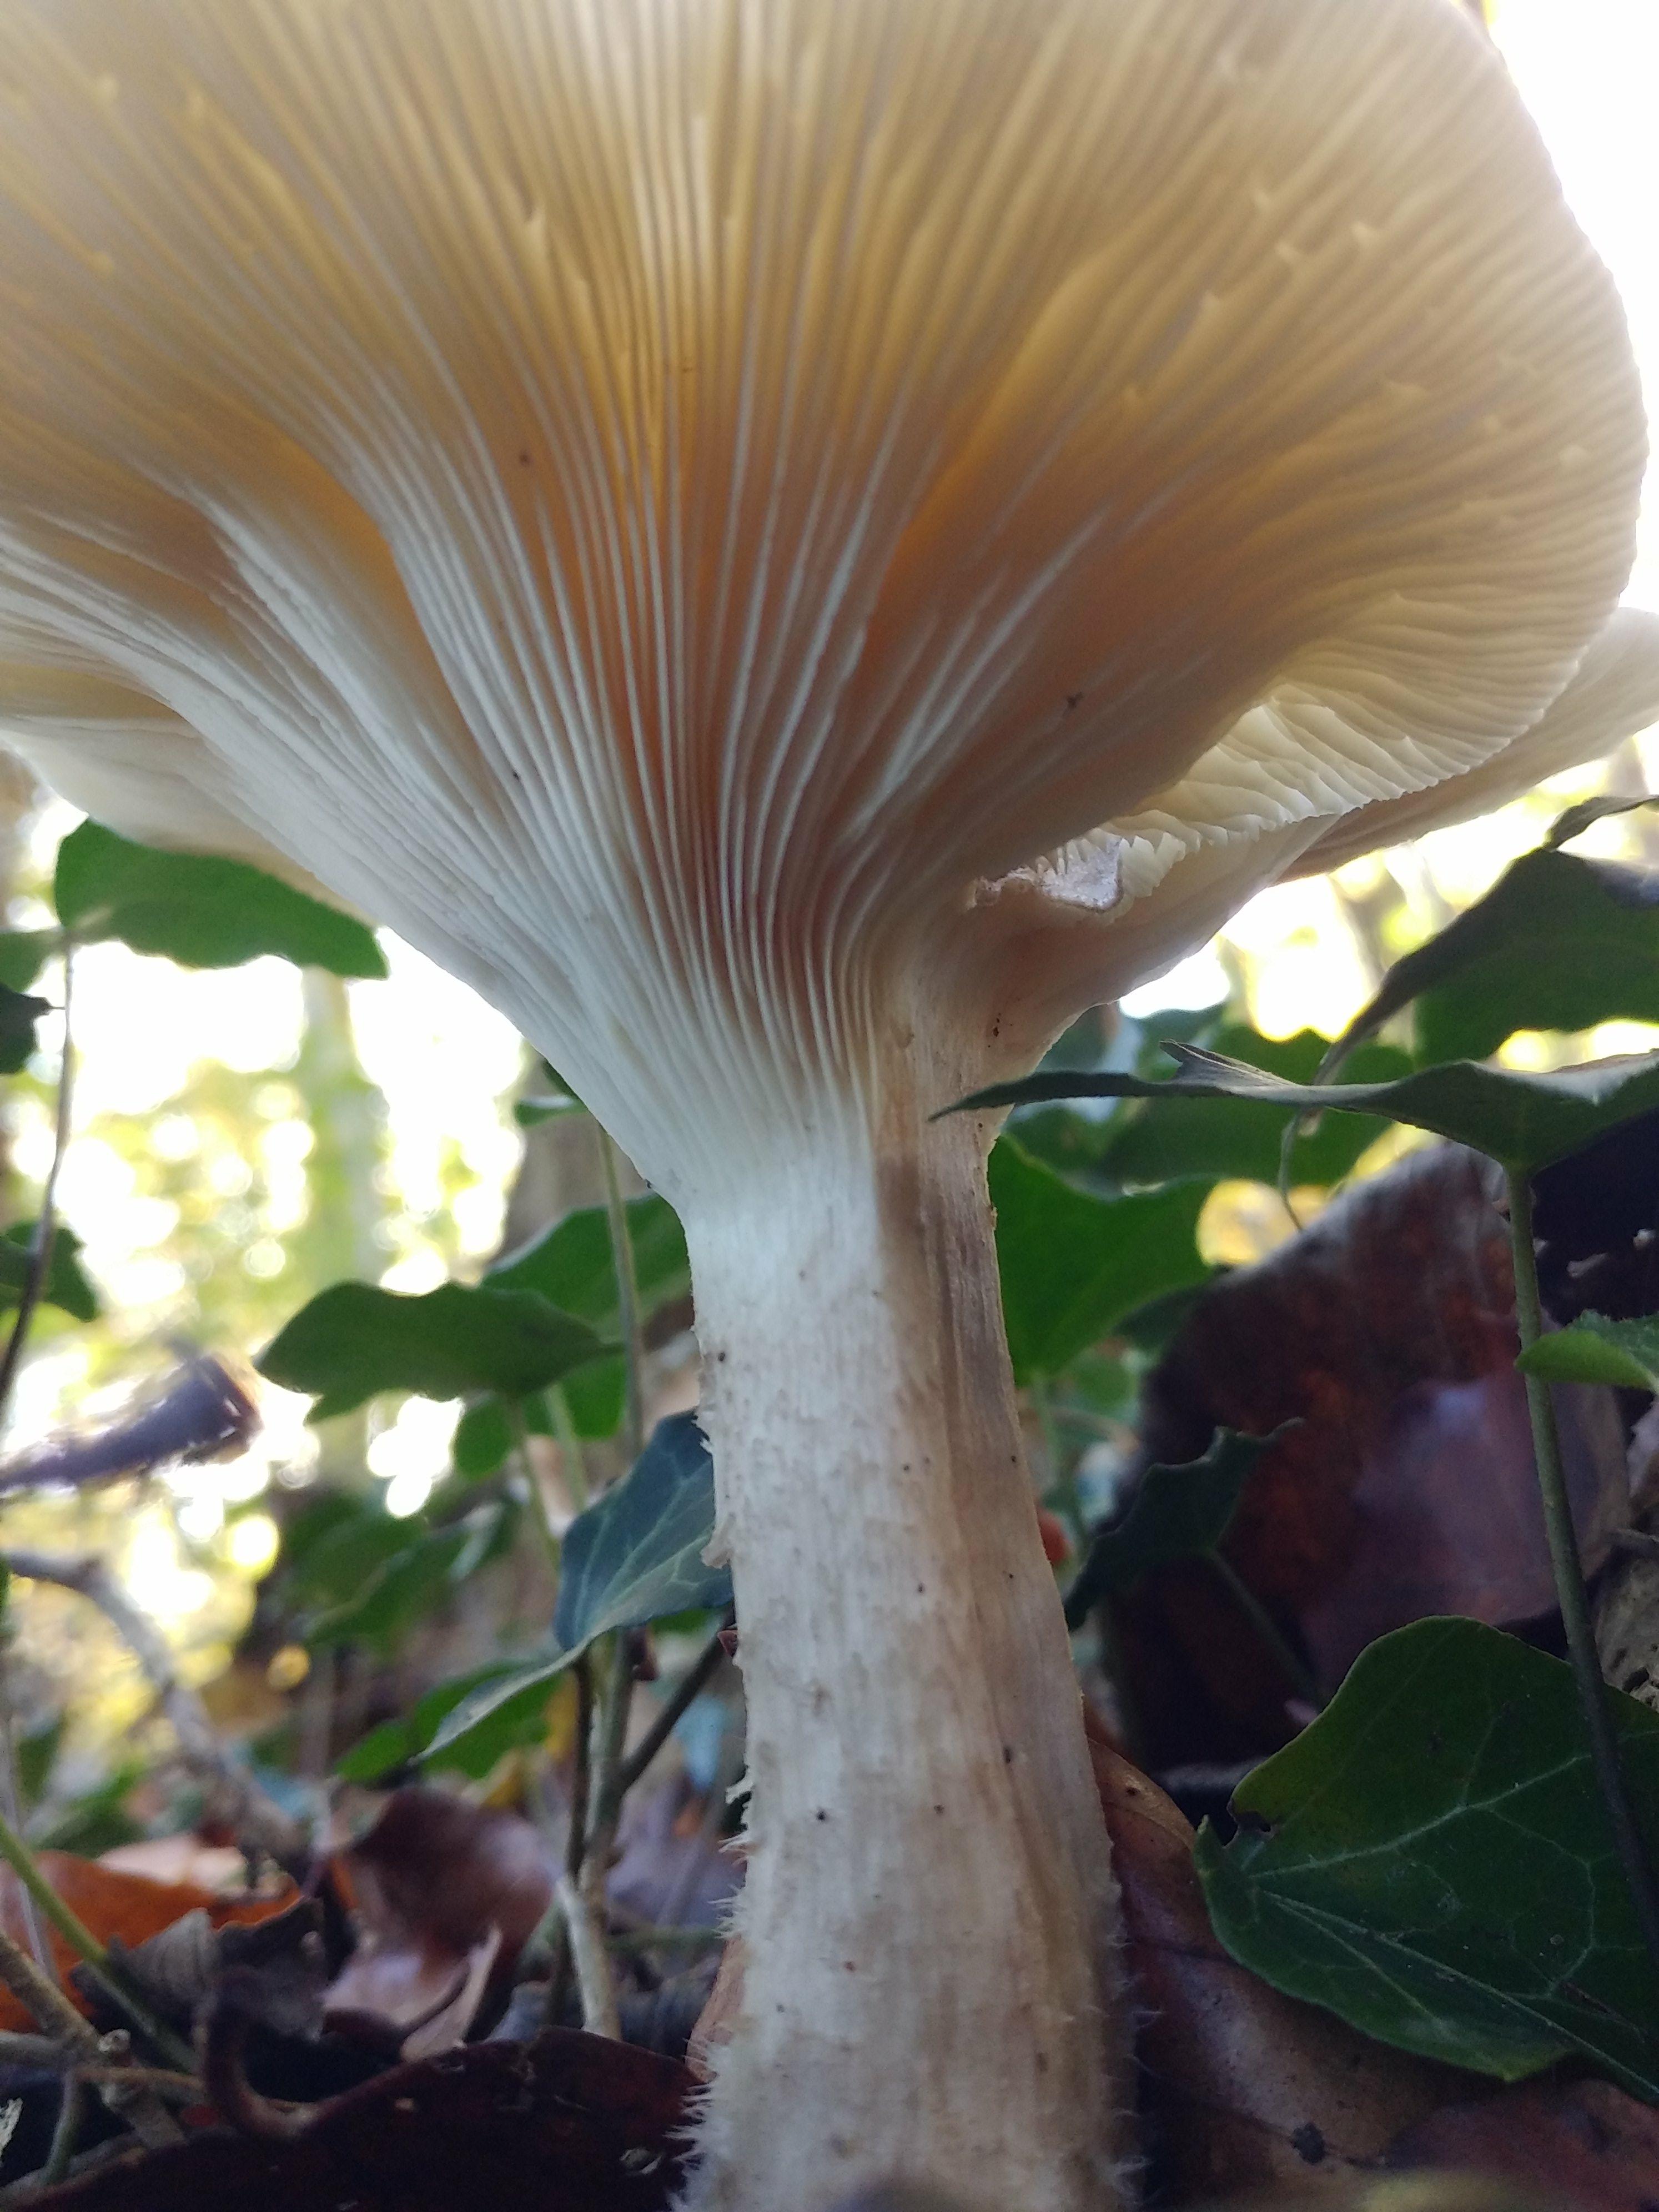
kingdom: Fungi
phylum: Basidiomycota
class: Agaricomycetes
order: Agaricales
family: Tricholomataceae
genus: Clitocybe
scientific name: Clitocybe nebularis
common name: tåge-tragthat
